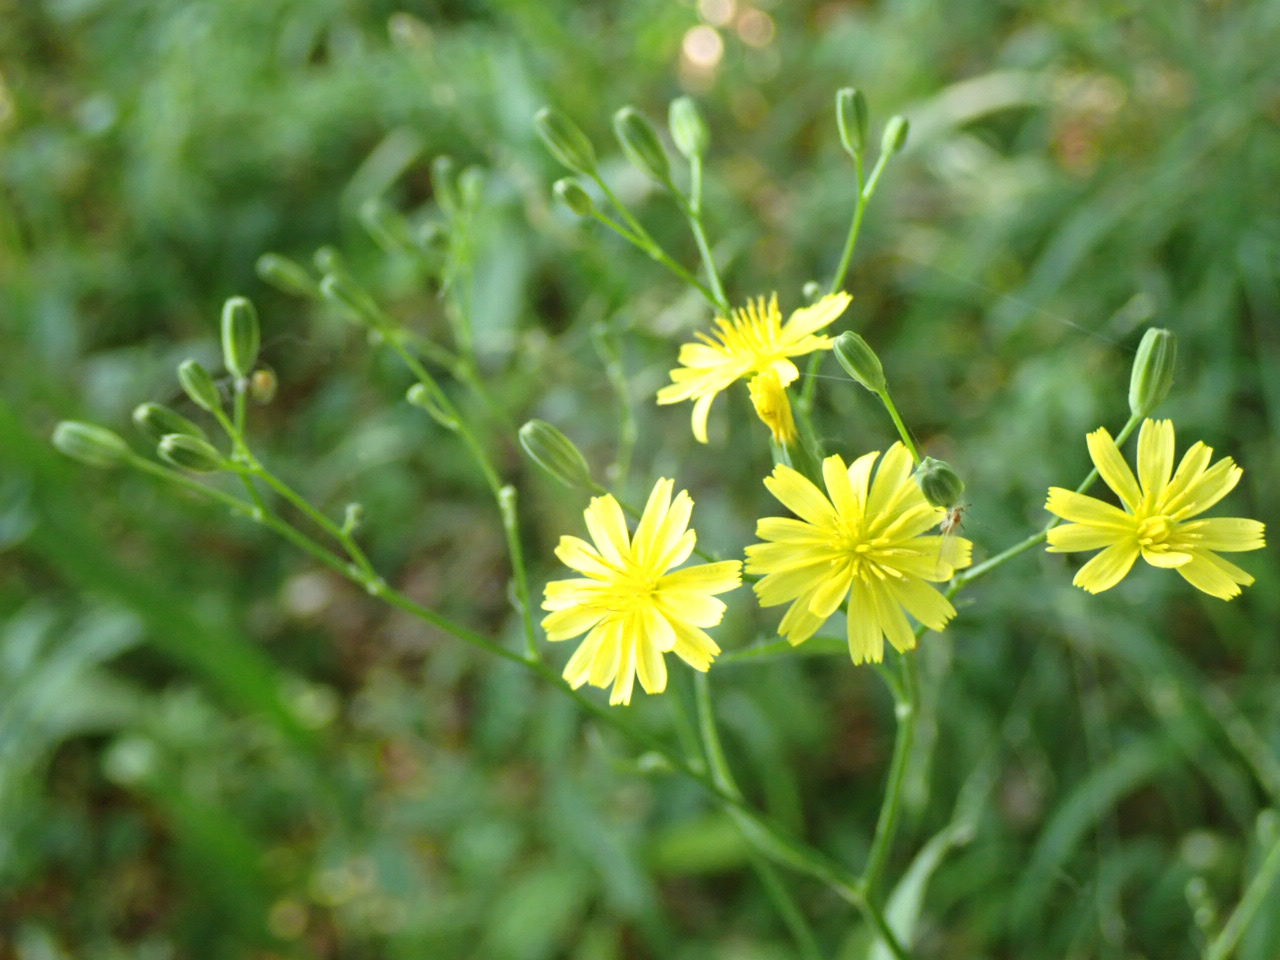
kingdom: Plantae
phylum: Tracheophyta
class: Magnoliopsida
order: Asterales
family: Asteraceae
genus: Lapsana
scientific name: Lapsana communis
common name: Haremad
